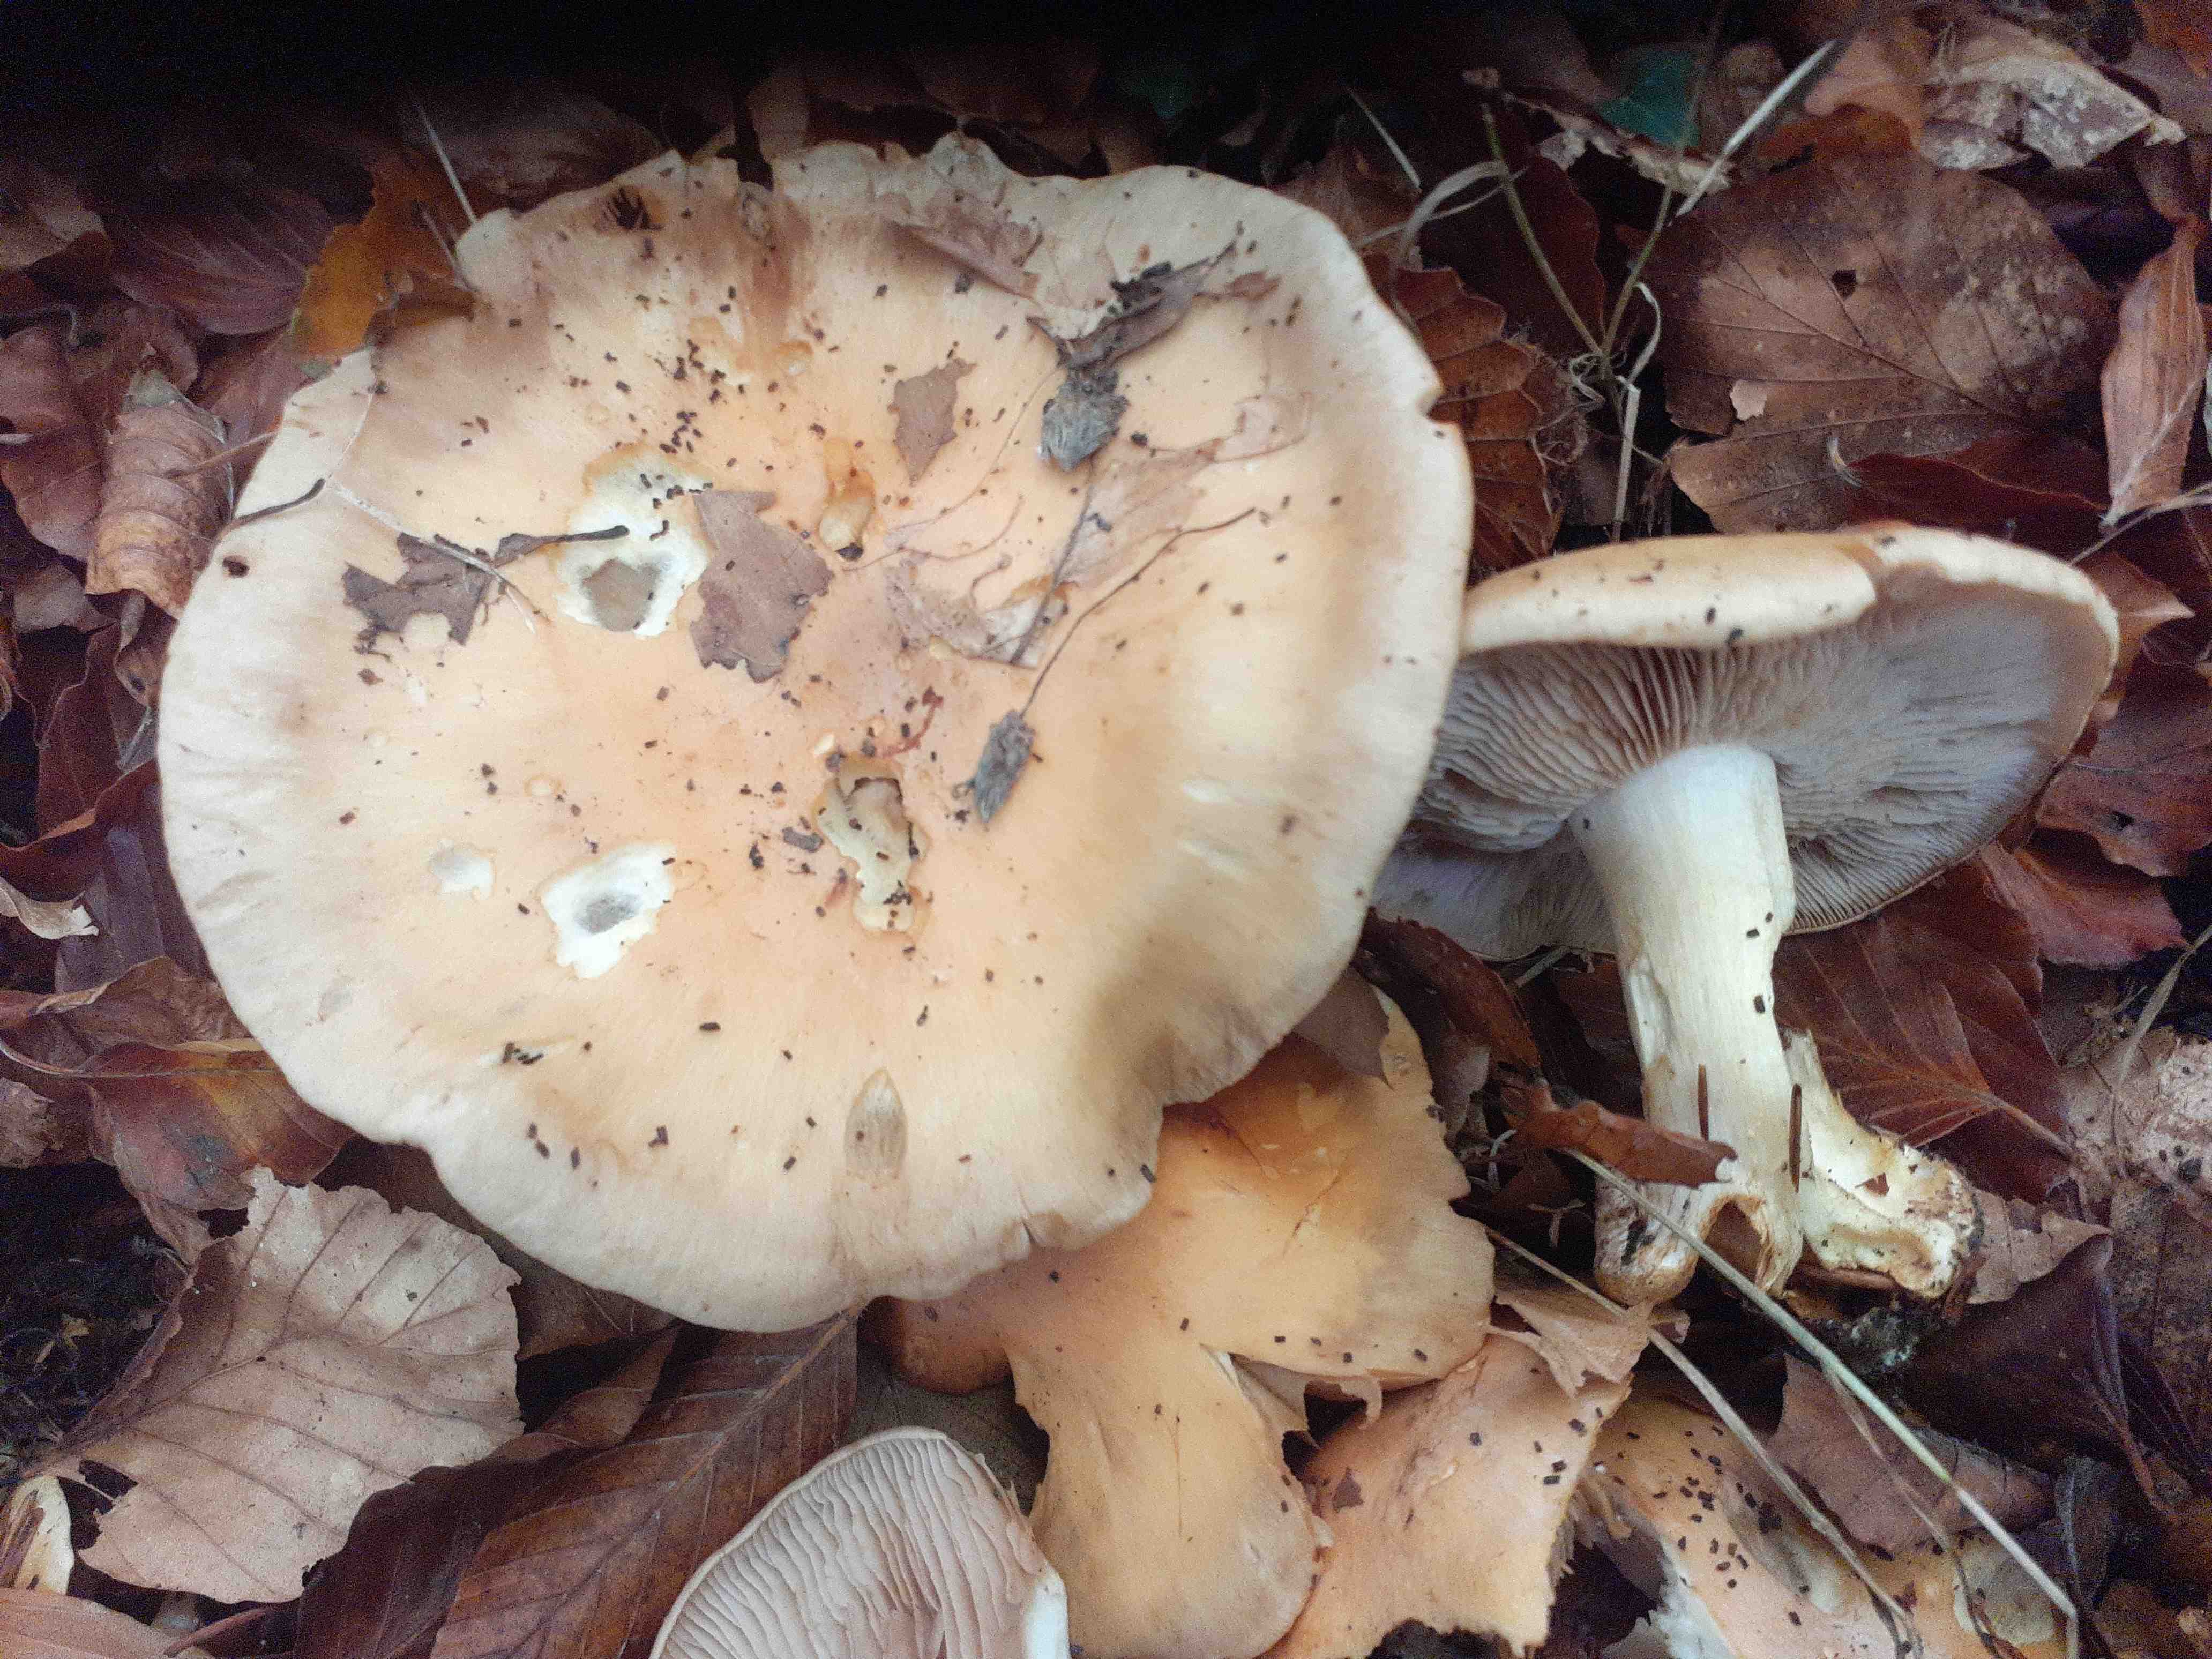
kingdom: Fungi
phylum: Basidiomycota
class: Agaricomycetes
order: Agaricales
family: Cortinariaceae
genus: Phlegmacium
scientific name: Phlegmacium
